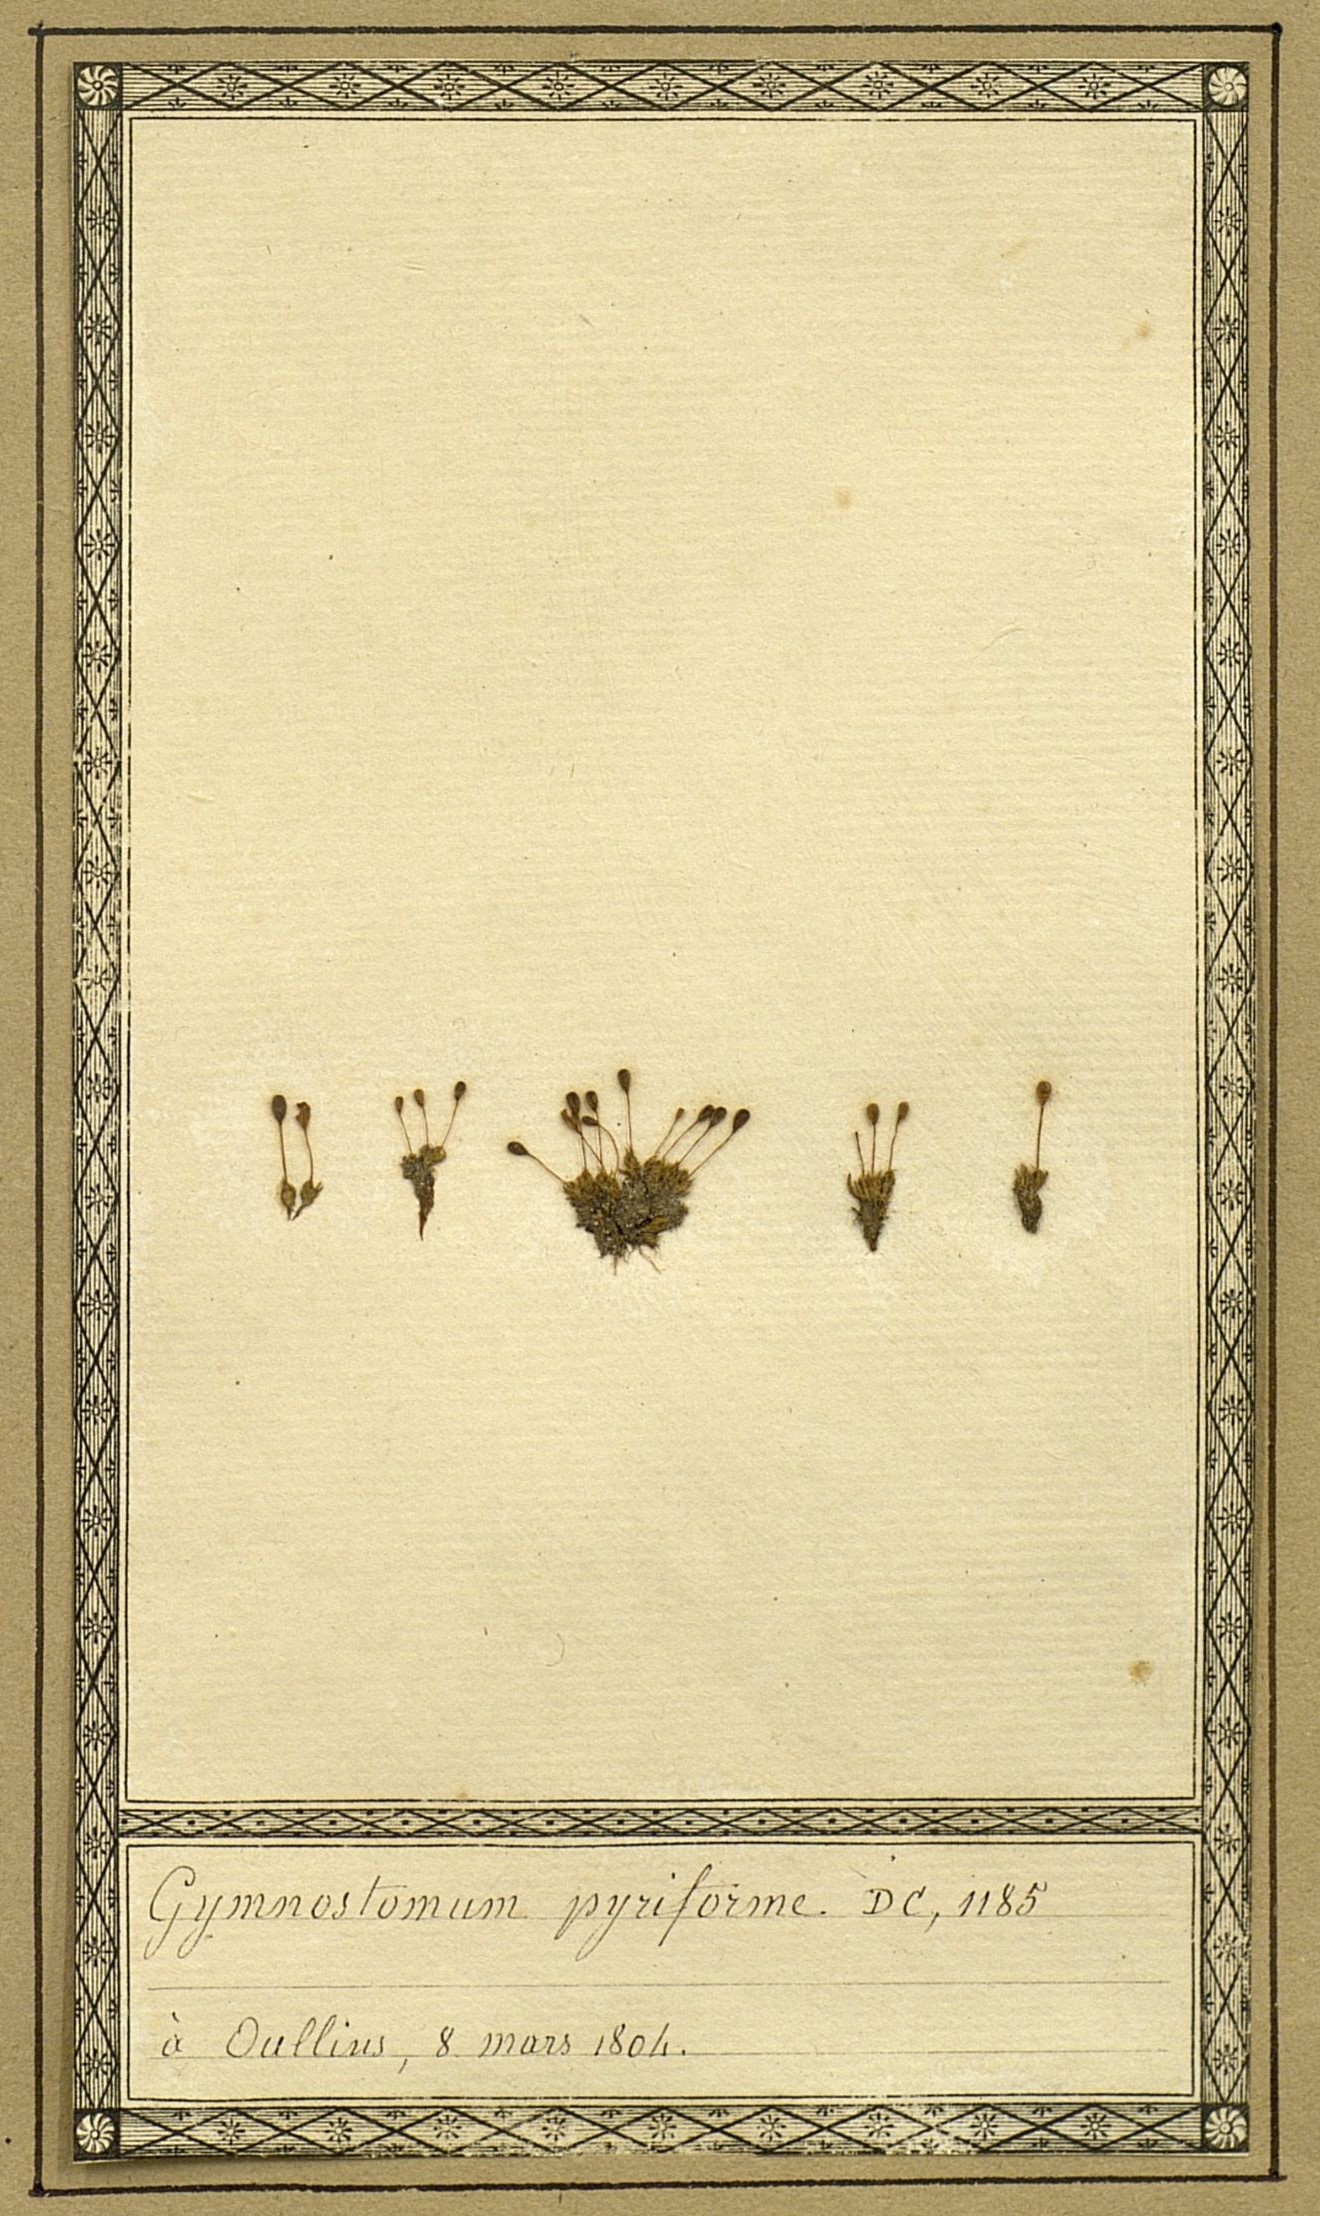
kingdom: Plantae
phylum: Bryophyta
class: Bryopsida
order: Funariales
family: Funariaceae
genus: Physcomitrium
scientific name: Physcomitrium pyriforme
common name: Common bladder-moss
